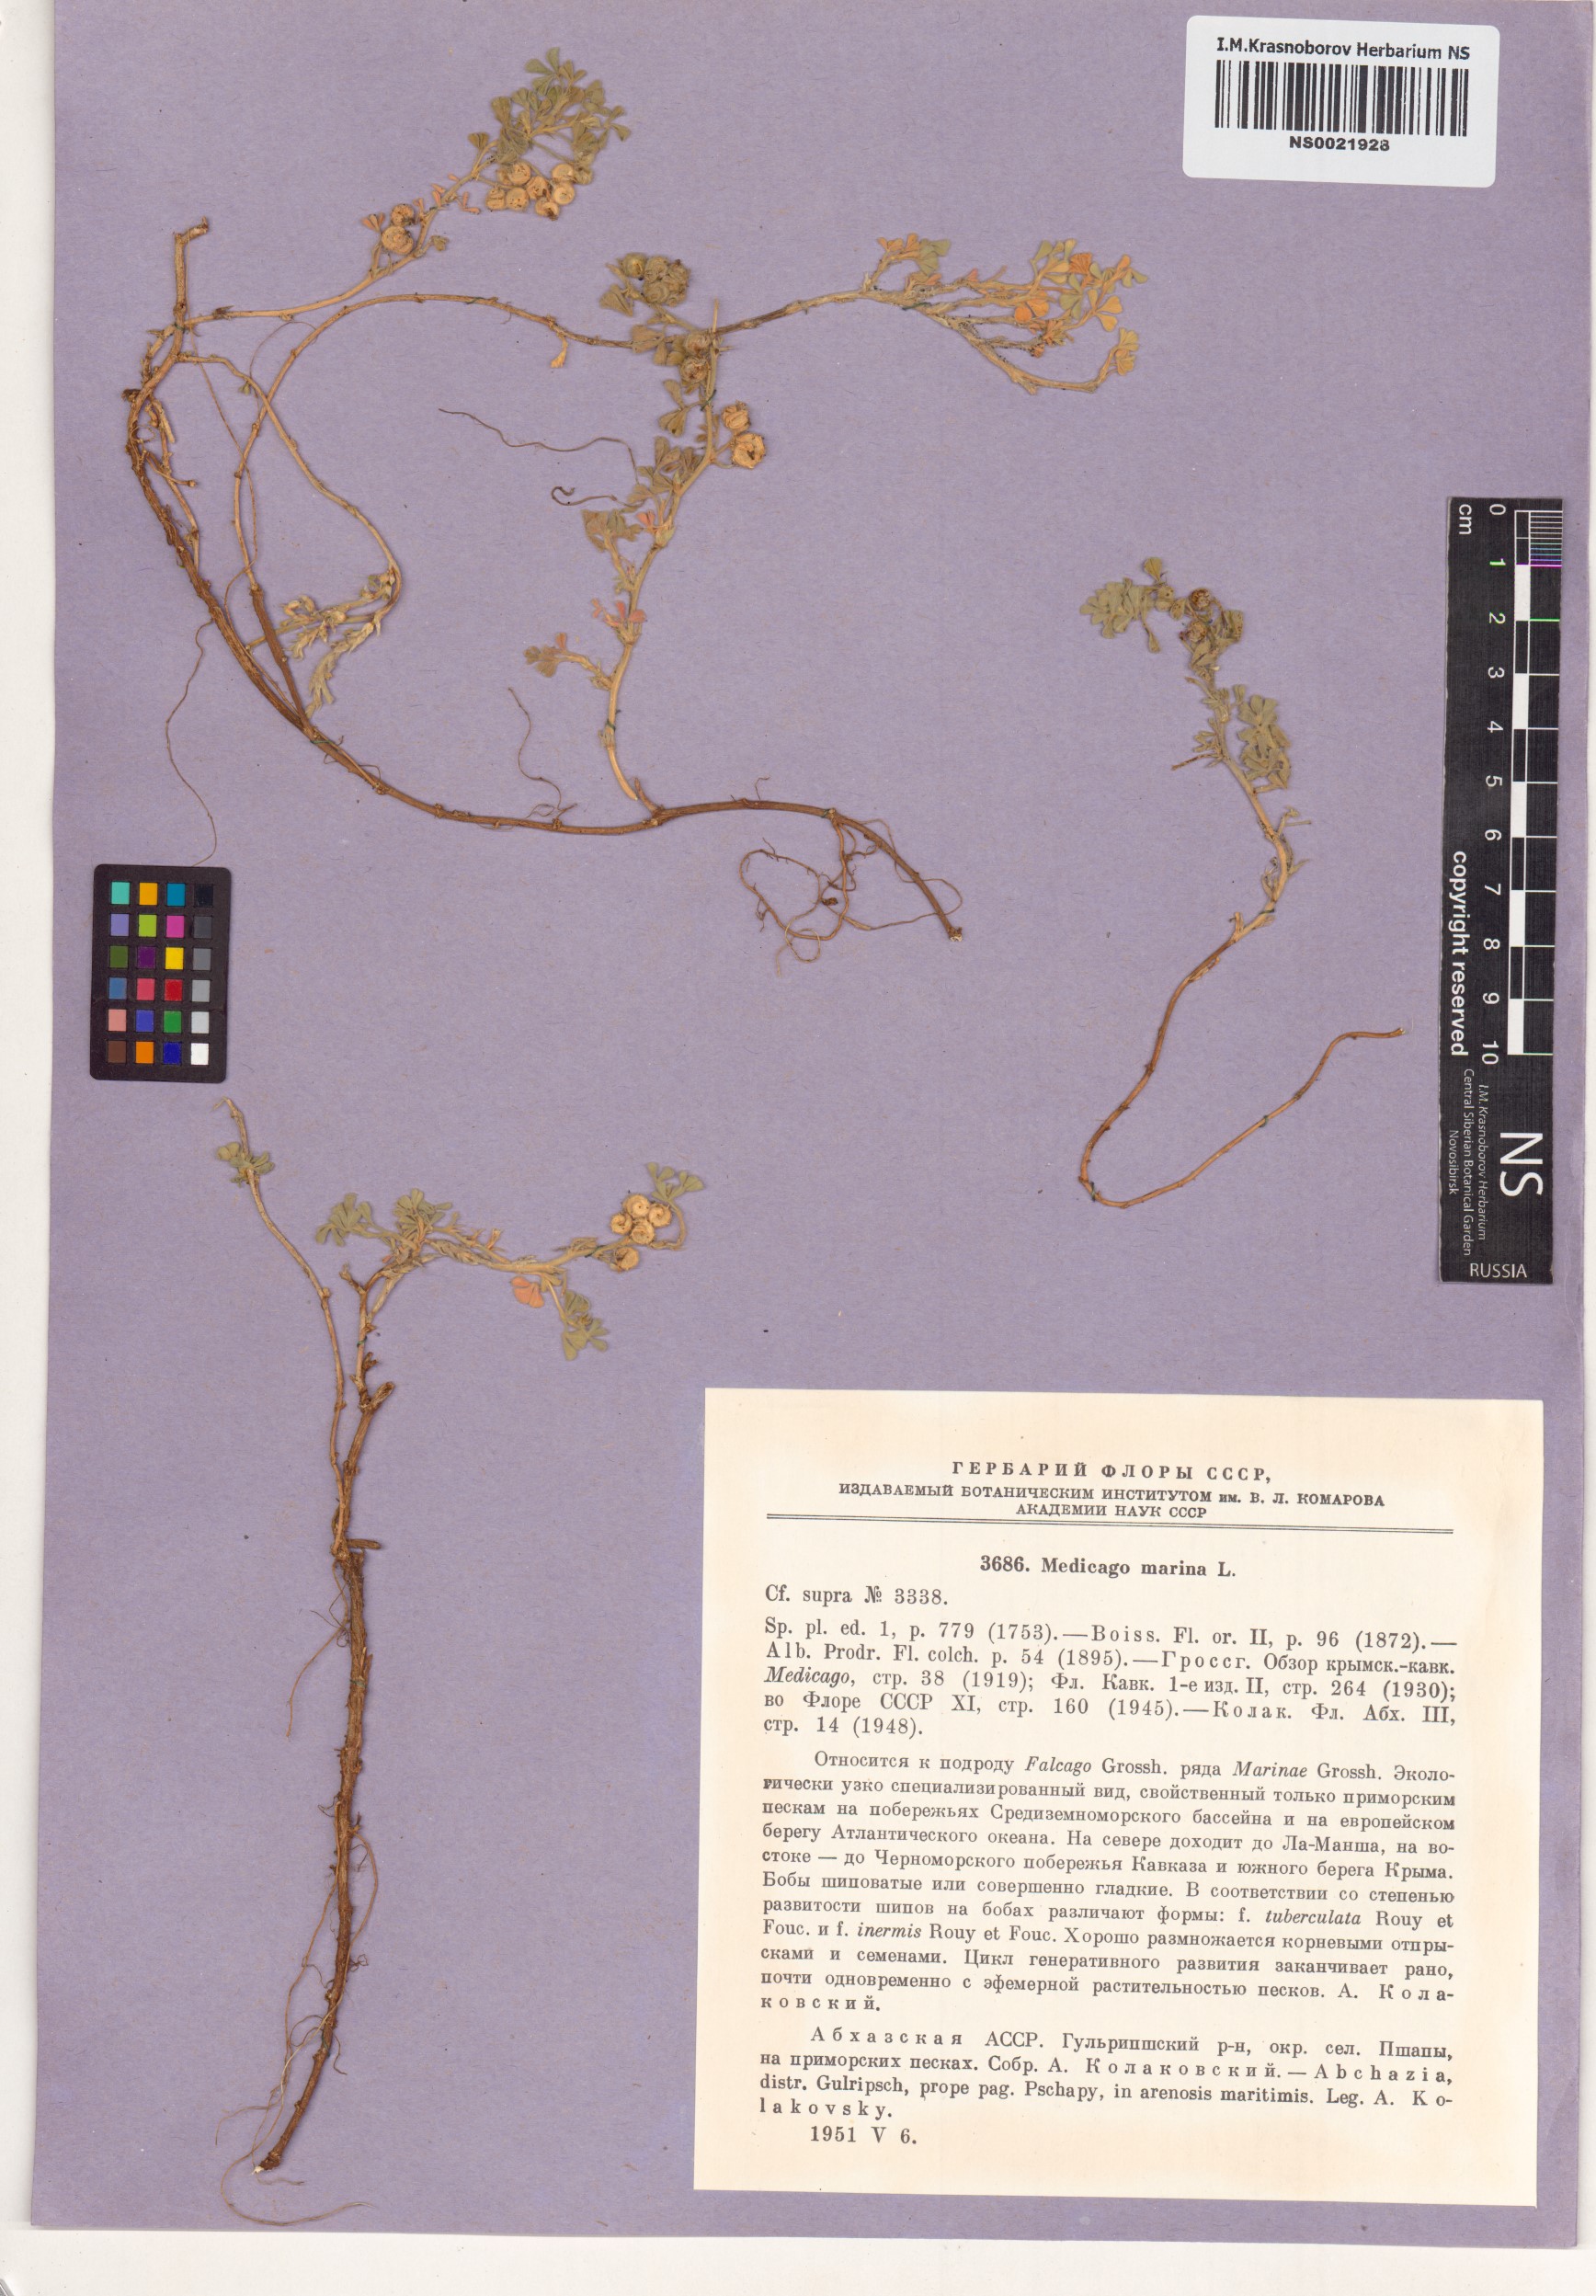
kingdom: Plantae
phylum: Tracheophyta
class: Magnoliopsida
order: Fabales
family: Fabaceae
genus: Medicago
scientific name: Medicago marina
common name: Sea medick
